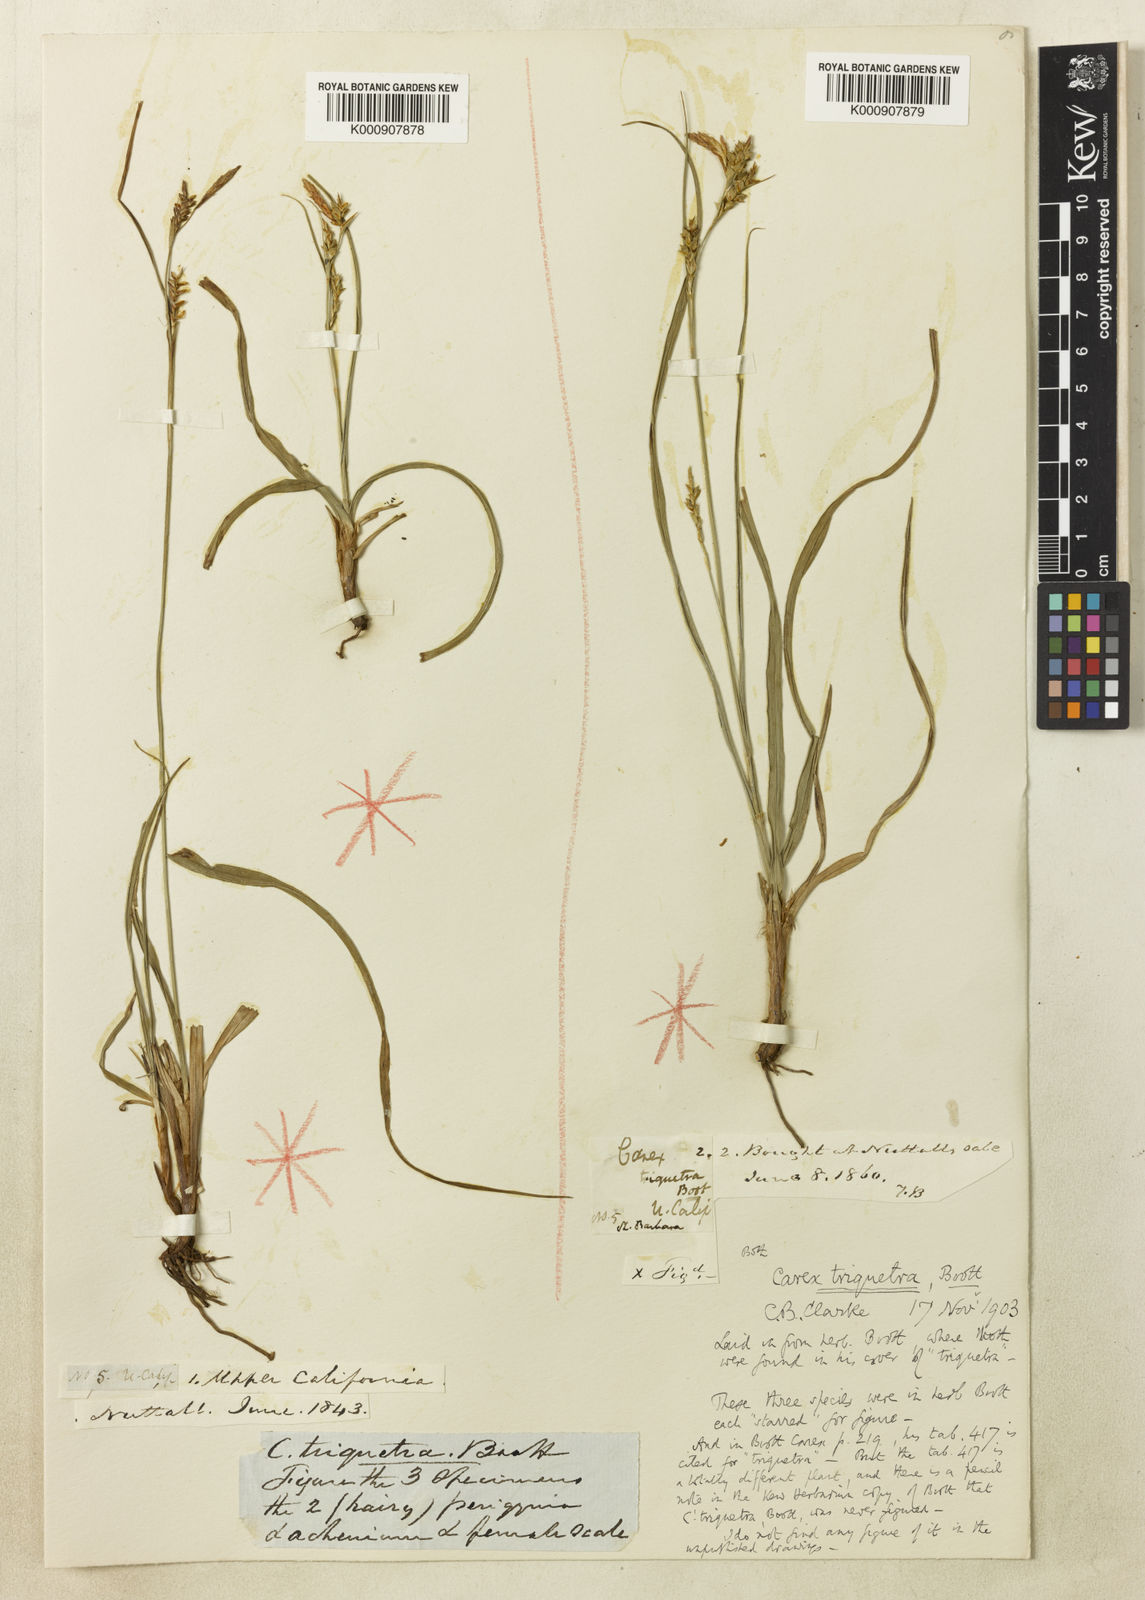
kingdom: Plantae
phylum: Tracheophyta
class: Liliopsida
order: Poales
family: Cyperaceae
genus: Carex
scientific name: Carex triquetra
